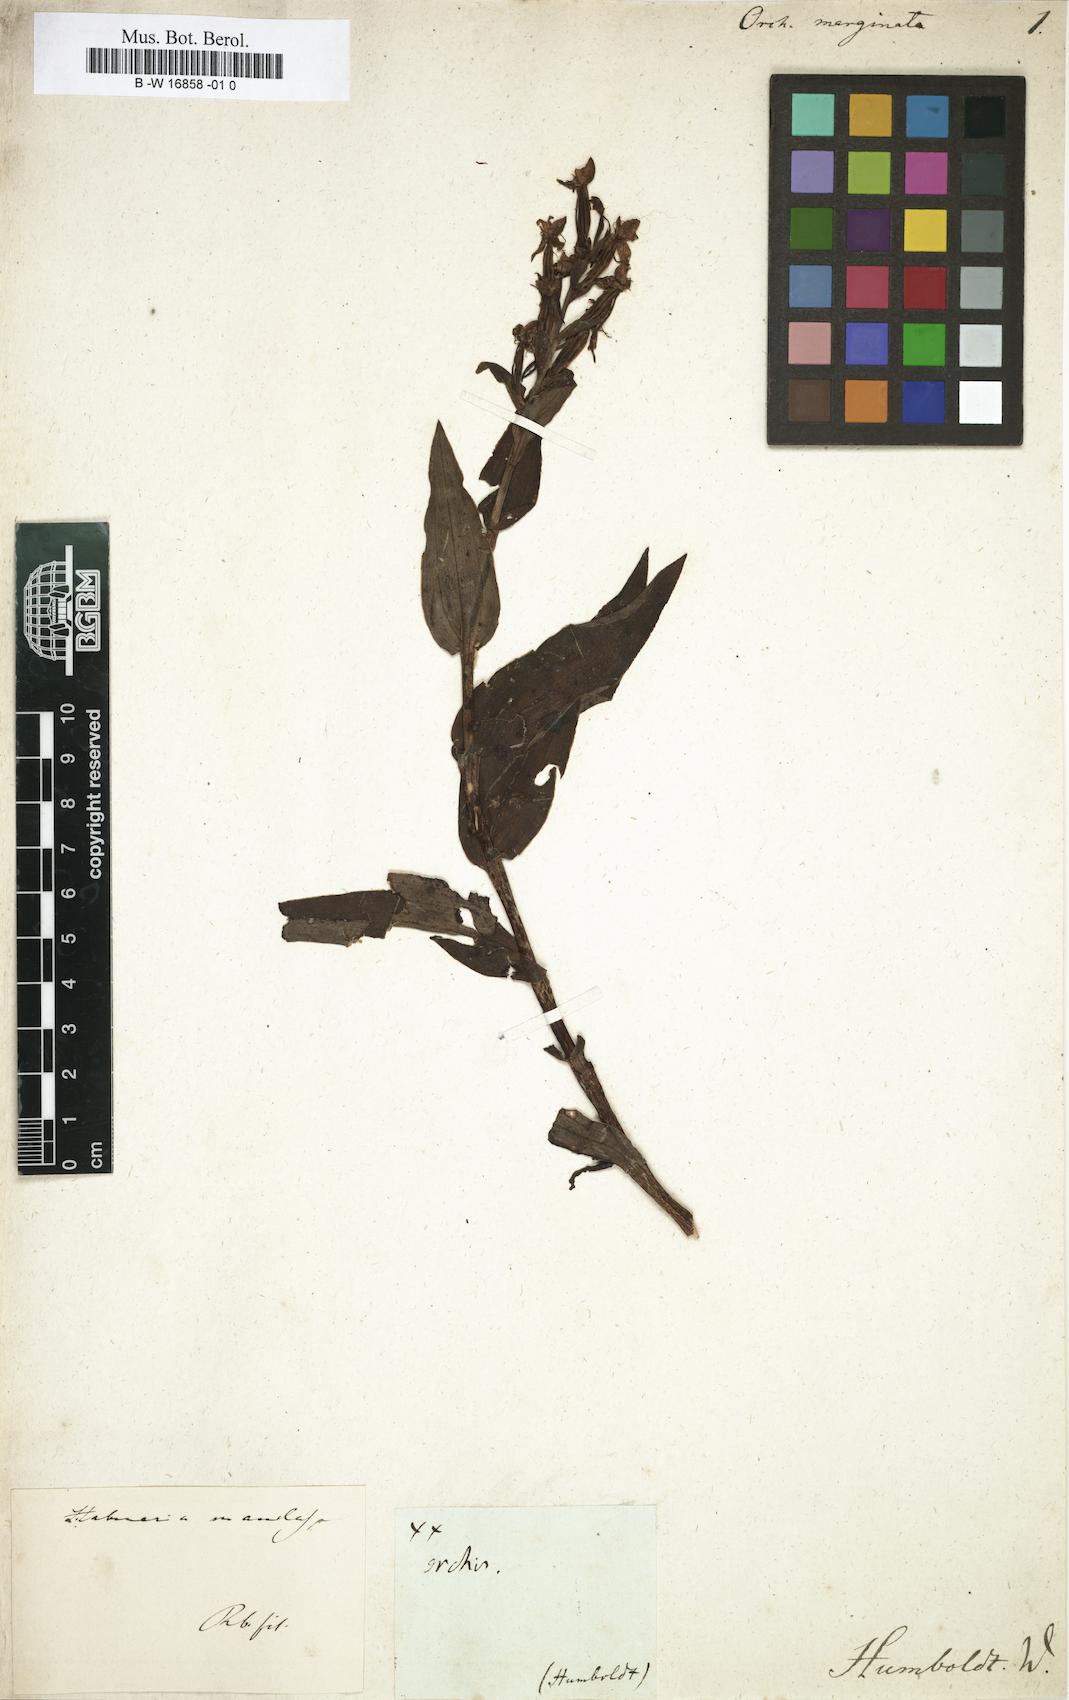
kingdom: Plantae
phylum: Tracheophyta
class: Liliopsida
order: Asparagales
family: Orchidaceae
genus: Orchis
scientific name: Orchis
